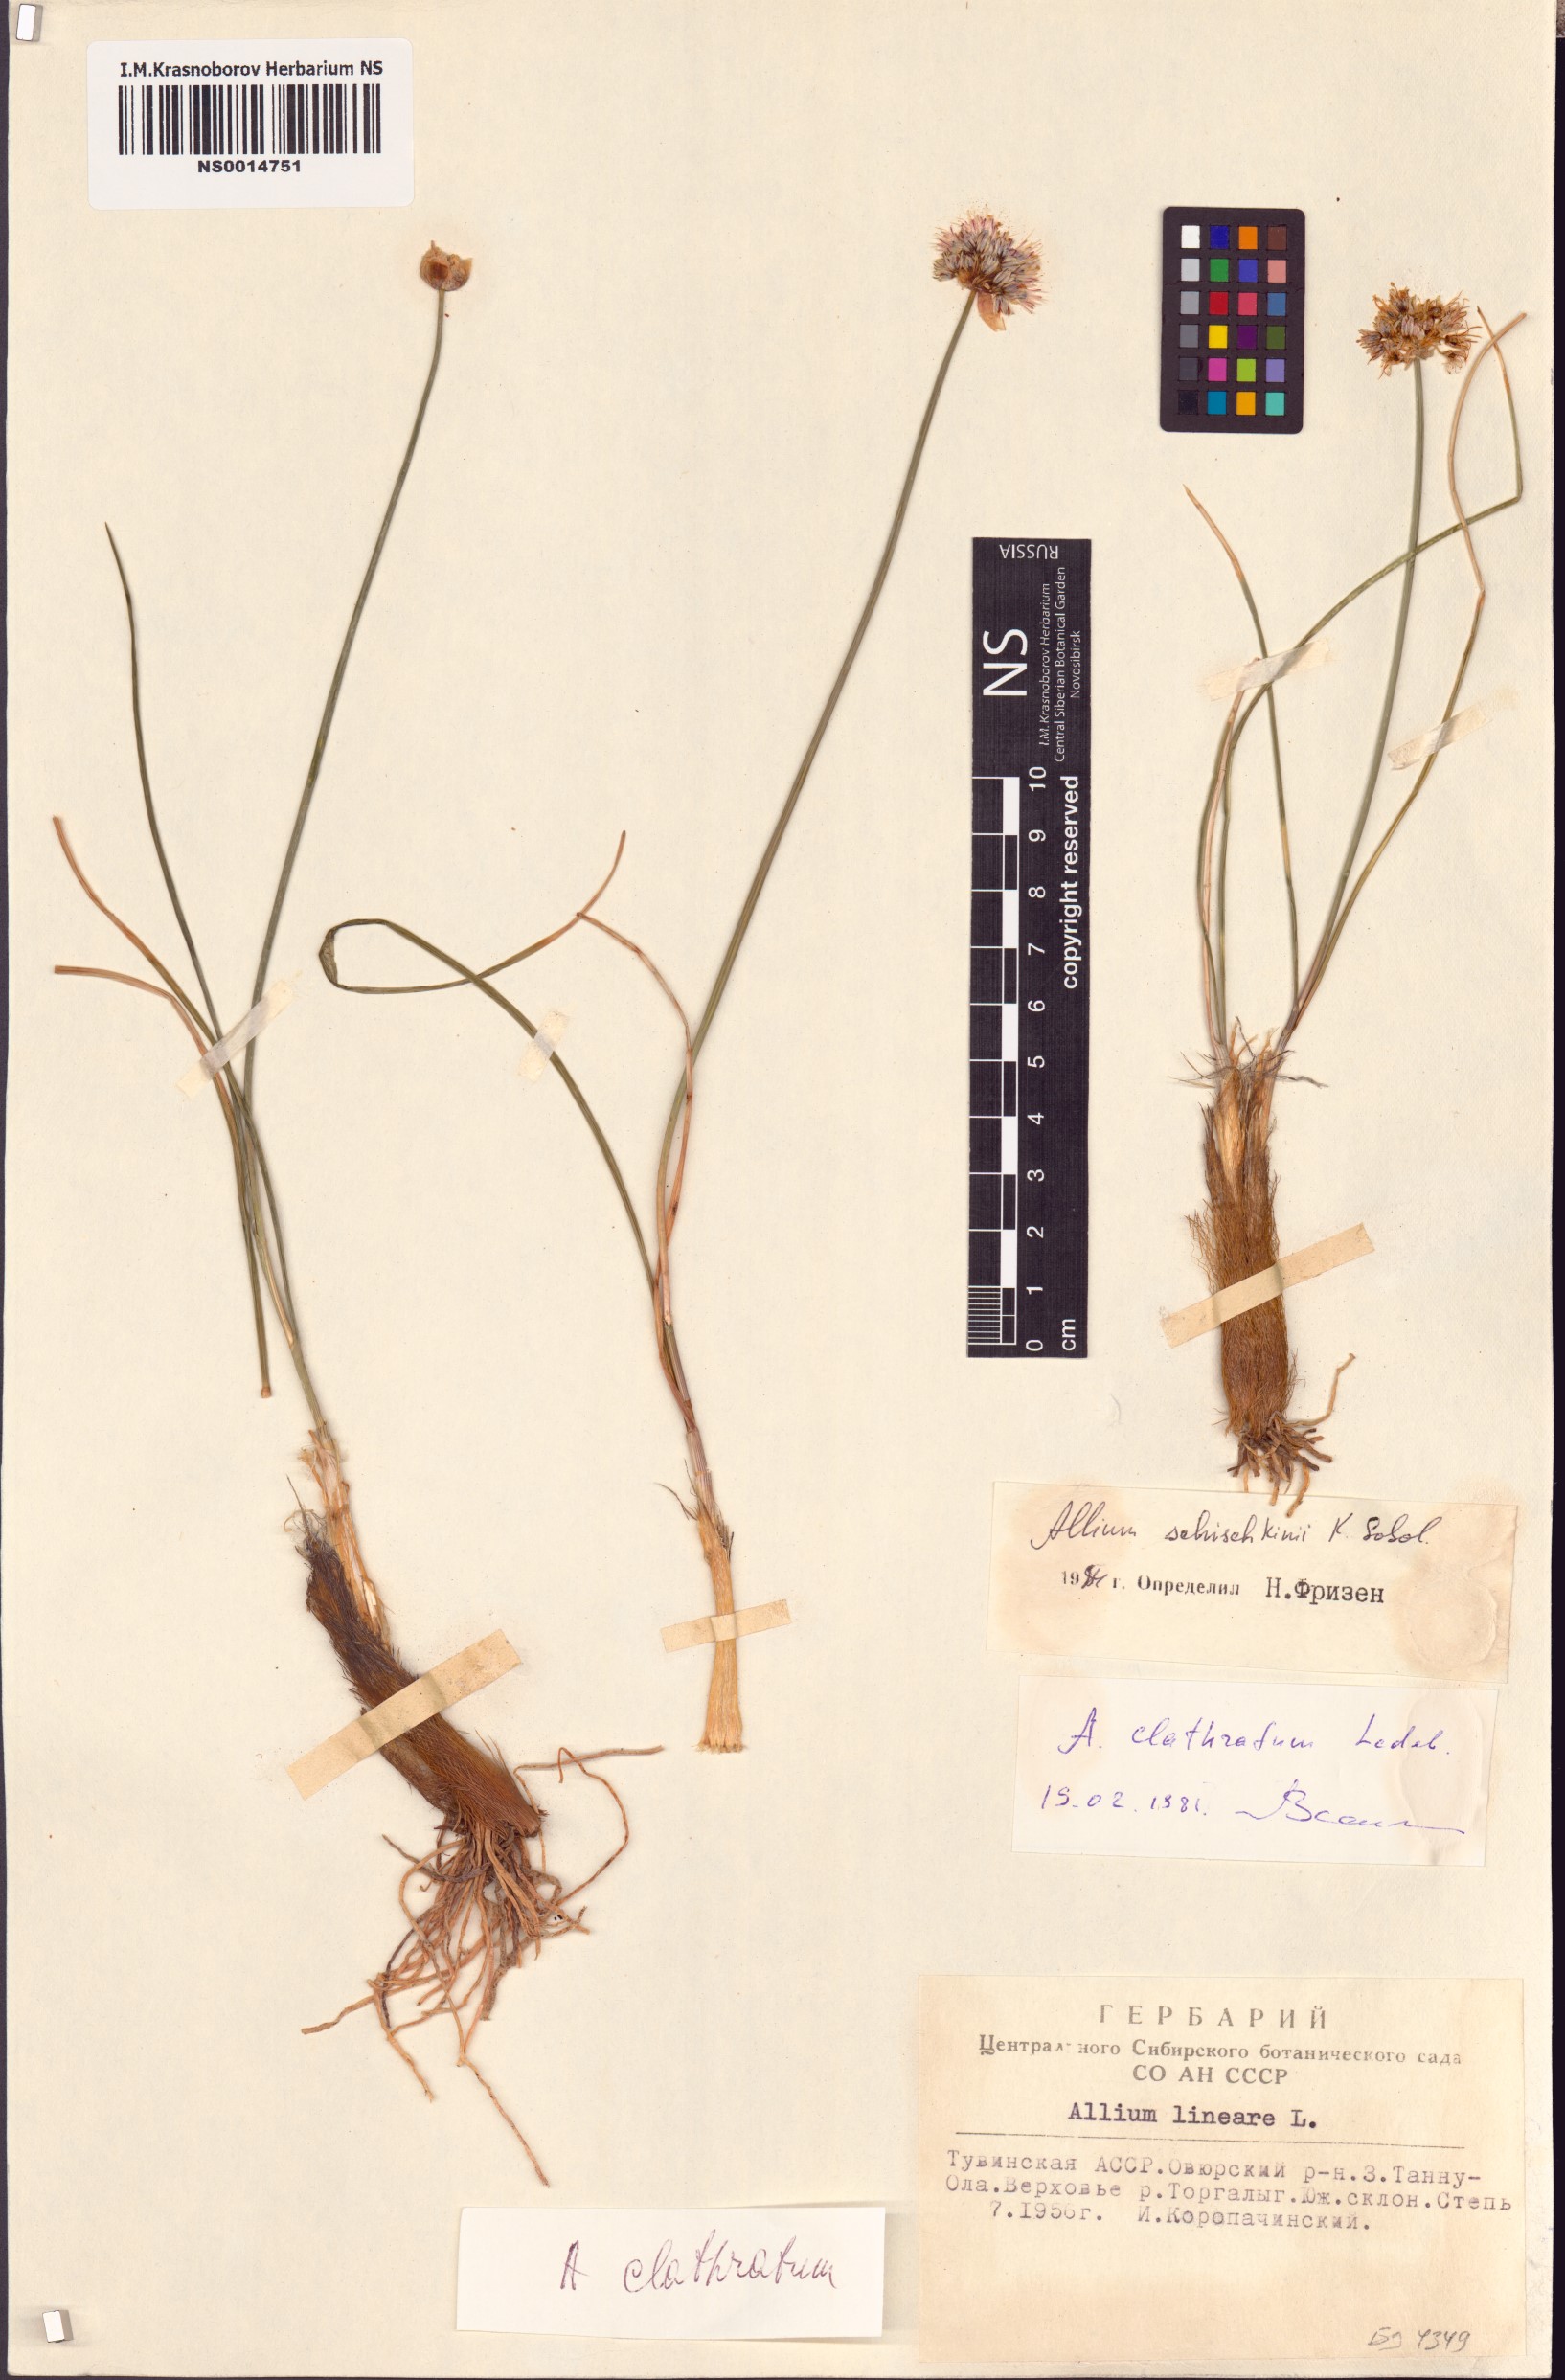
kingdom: Plantae
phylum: Tracheophyta
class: Liliopsida
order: Asparagales
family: Amaryllidaceae
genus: Allium
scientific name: Allium schischkinii
